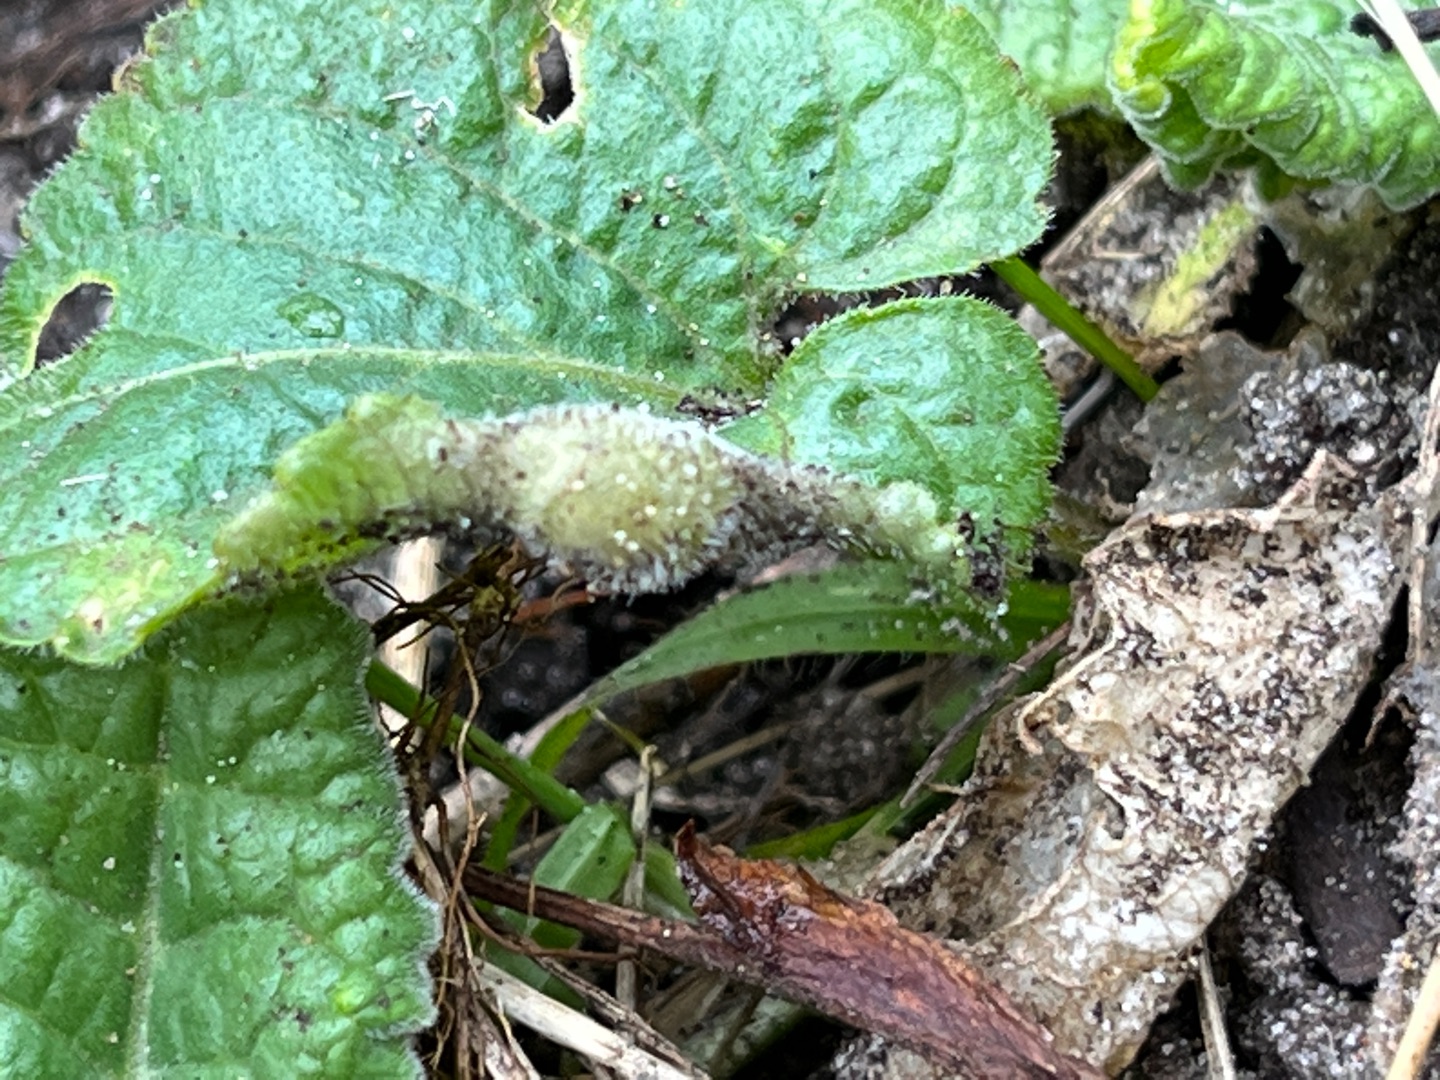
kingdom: Animalia
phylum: Arthropoda
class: Insecta
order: Diptera
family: Cecidomyiidae
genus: Dasineura
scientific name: Dasineura violahirtae
